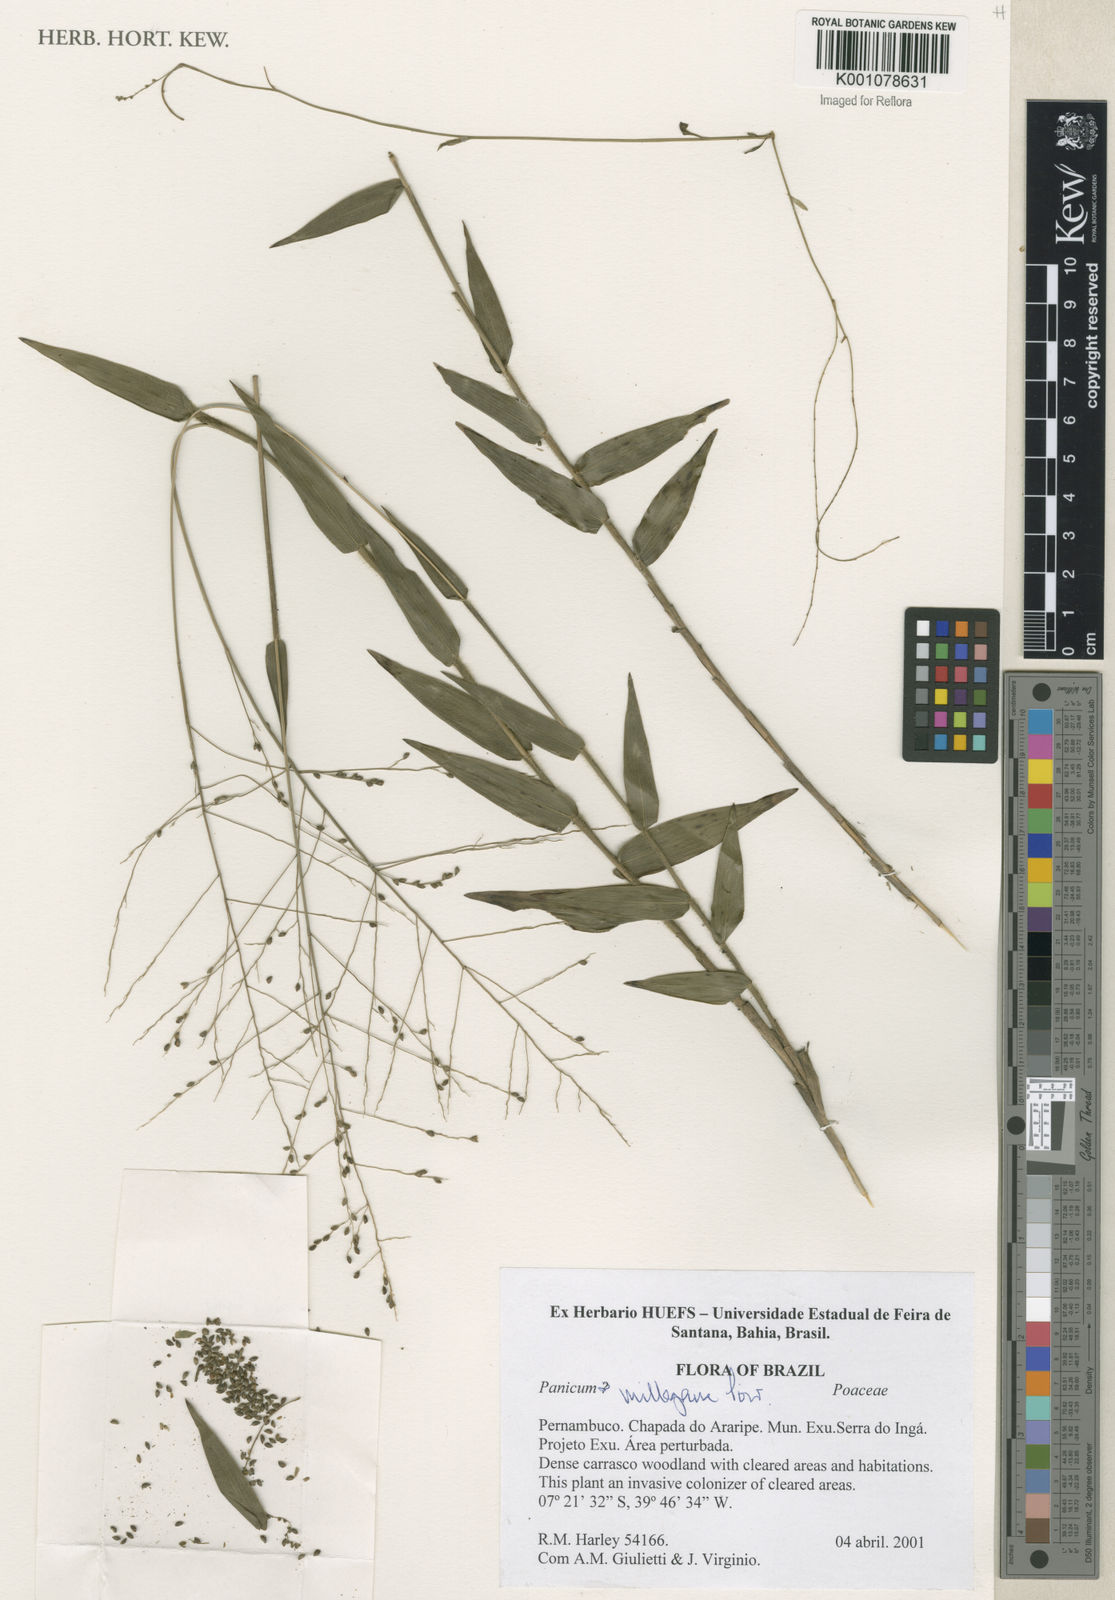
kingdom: Plantae
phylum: Tracheophyta
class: Liliopsida
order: Poales
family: Poaceae
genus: Panicum
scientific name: Panicum millegrana
